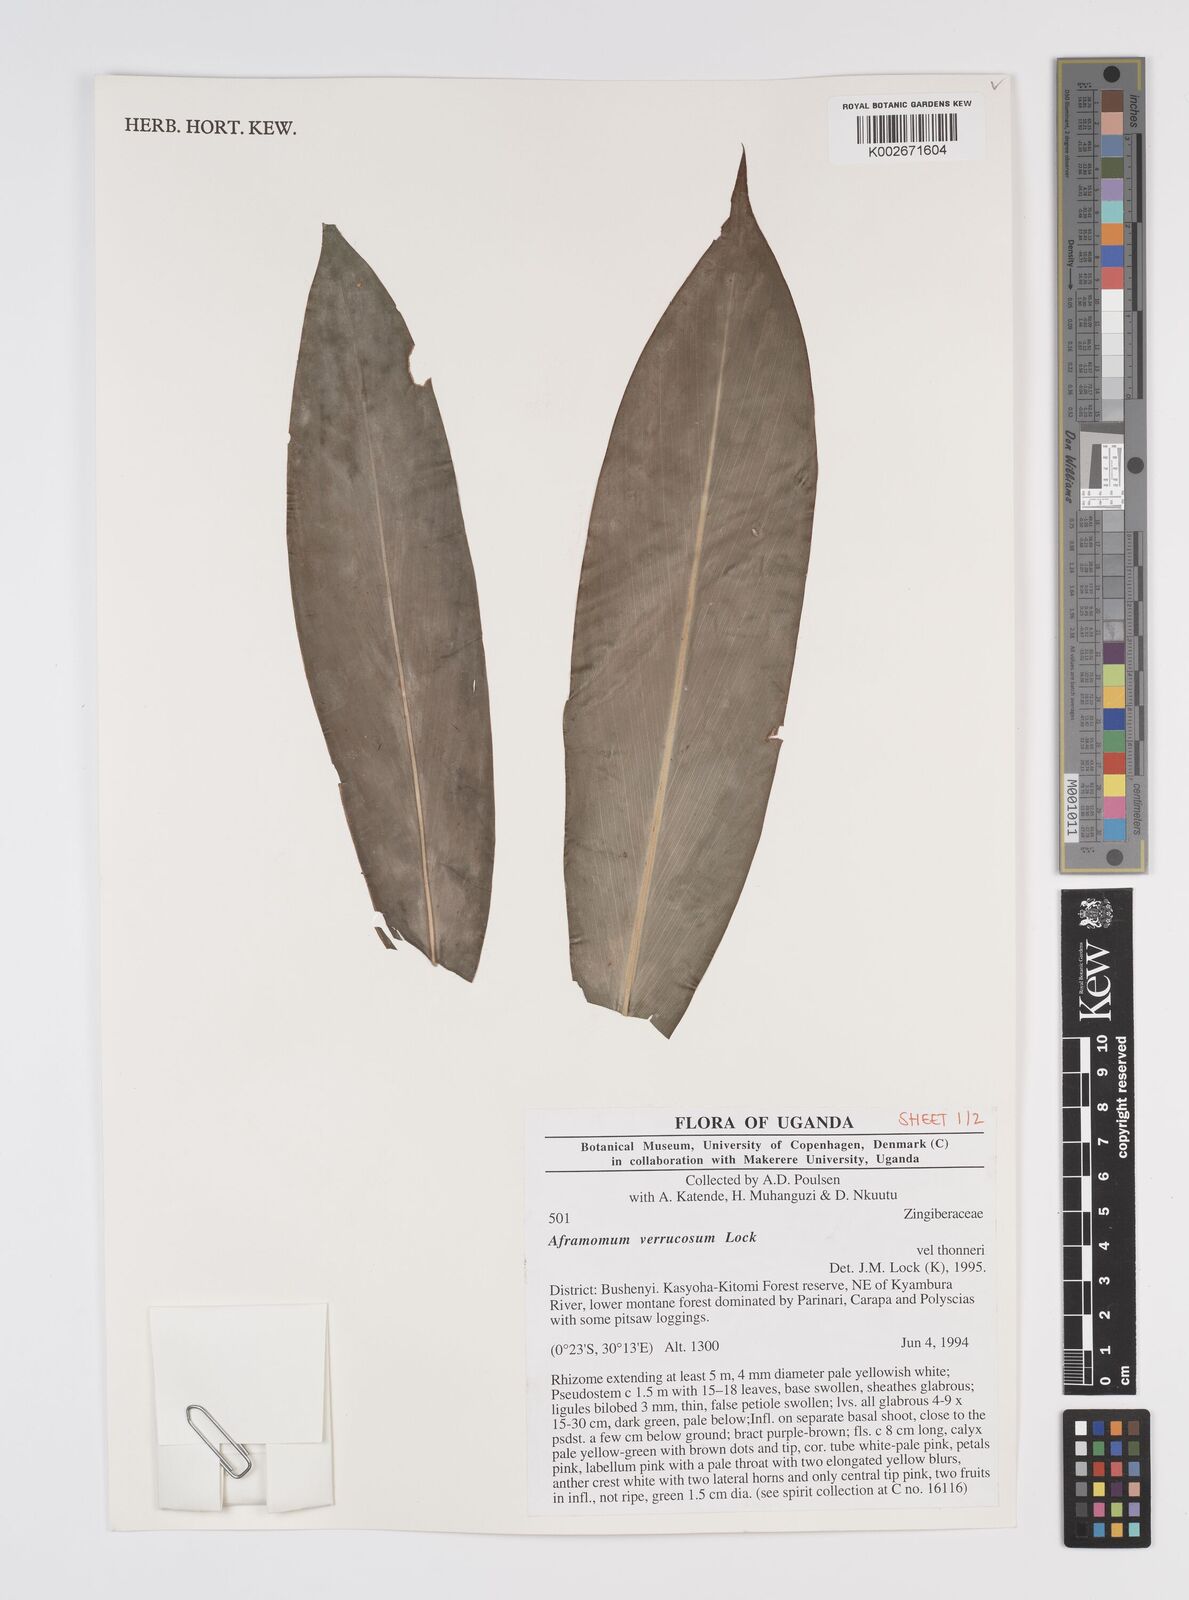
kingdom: Plantae
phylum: Tracheophyta
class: Liliopsida
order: Zingiberales
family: Zingiberaceae
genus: Aframomum
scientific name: Aframomum verrucosum
